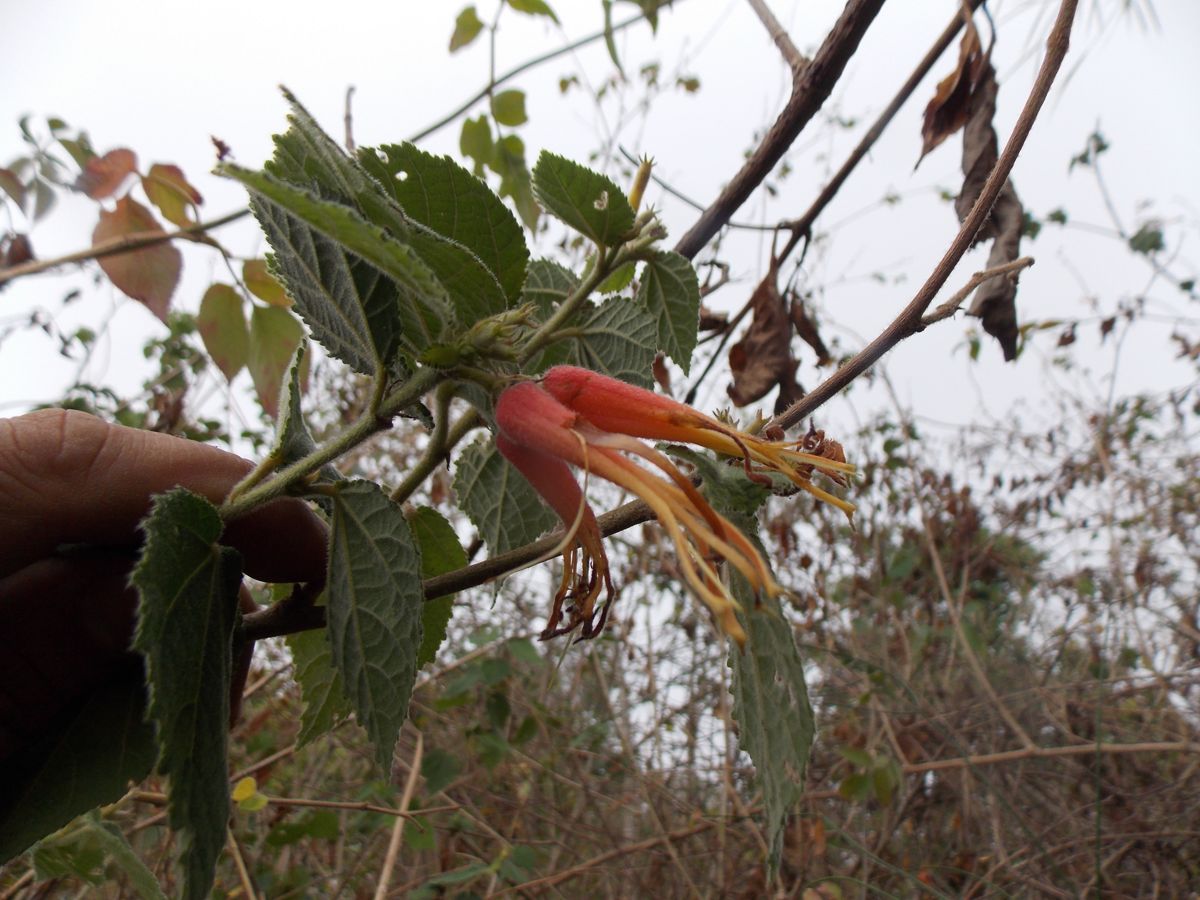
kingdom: Plantae
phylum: Tracheophyta
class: Magnoliopsida
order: Malvales
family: Malvaceae
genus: Triumfetta
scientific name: Triumfetta speciosa
